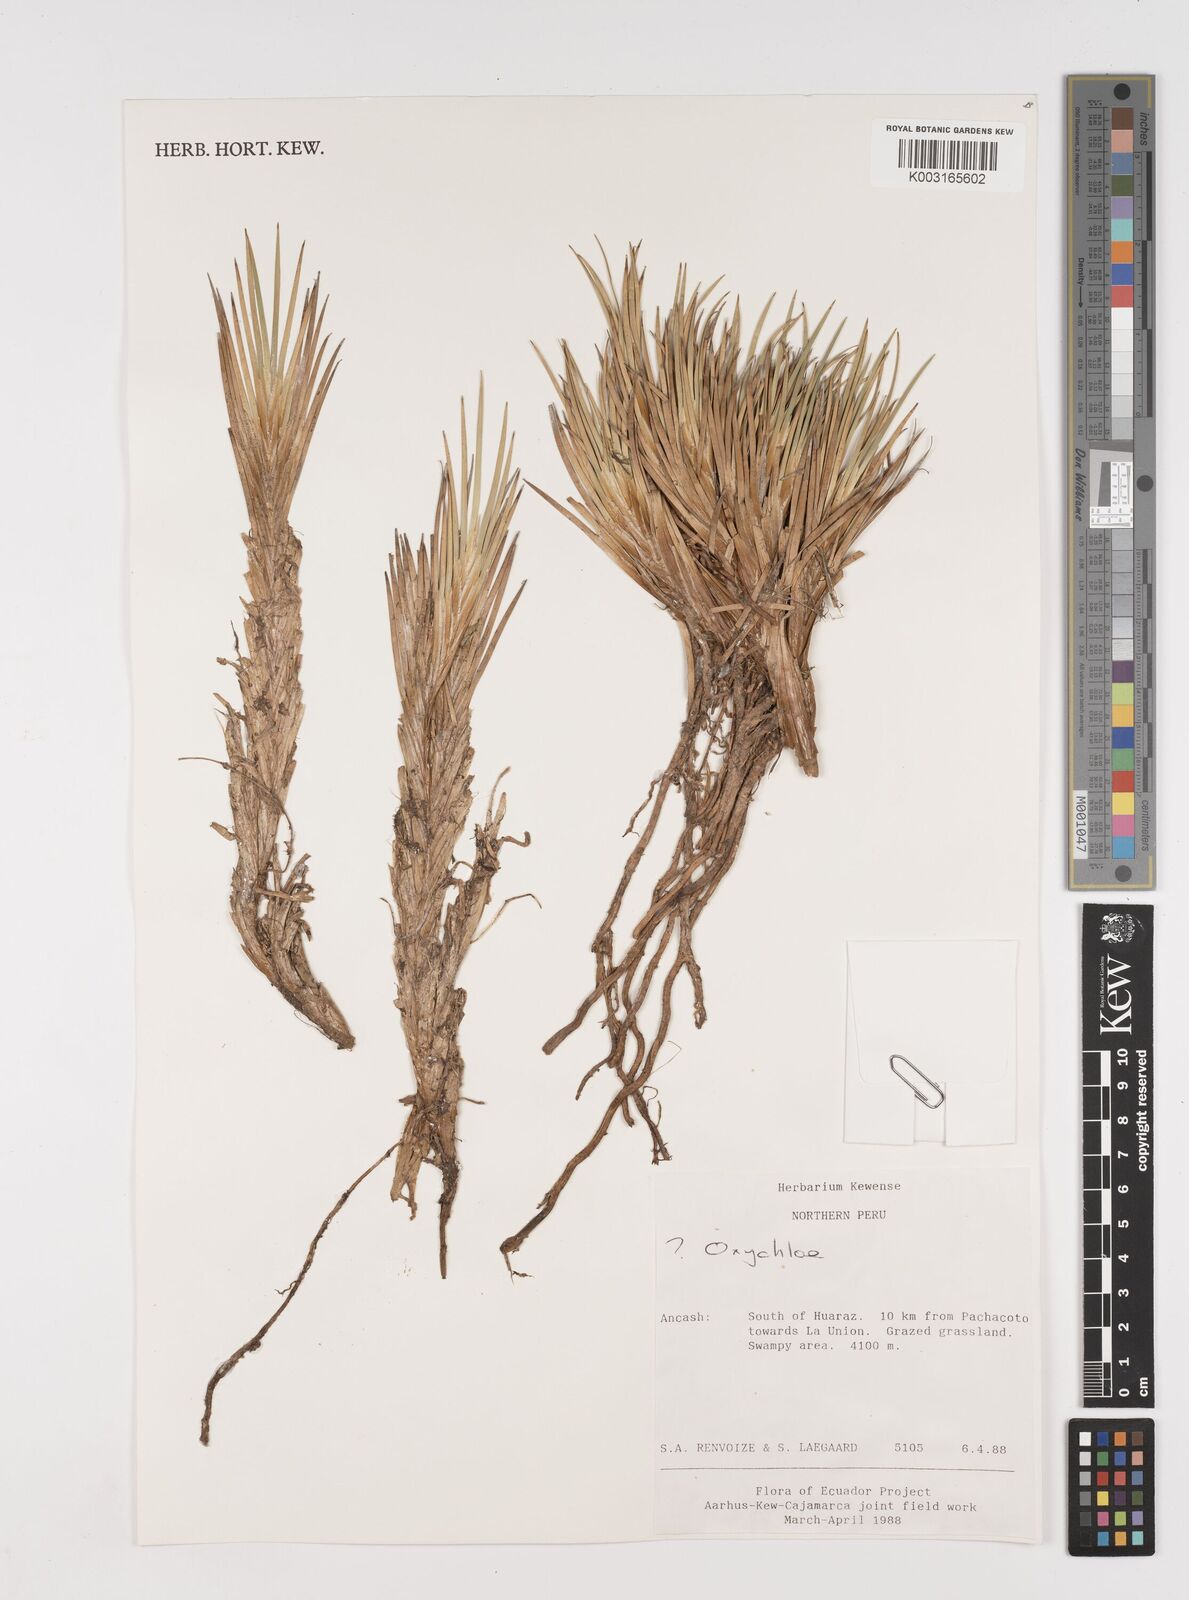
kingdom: Plantae
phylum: Tracheophyta
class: Liliopsida
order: Poales
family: Juncaceae
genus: Oxychloe
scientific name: Oxychloe
